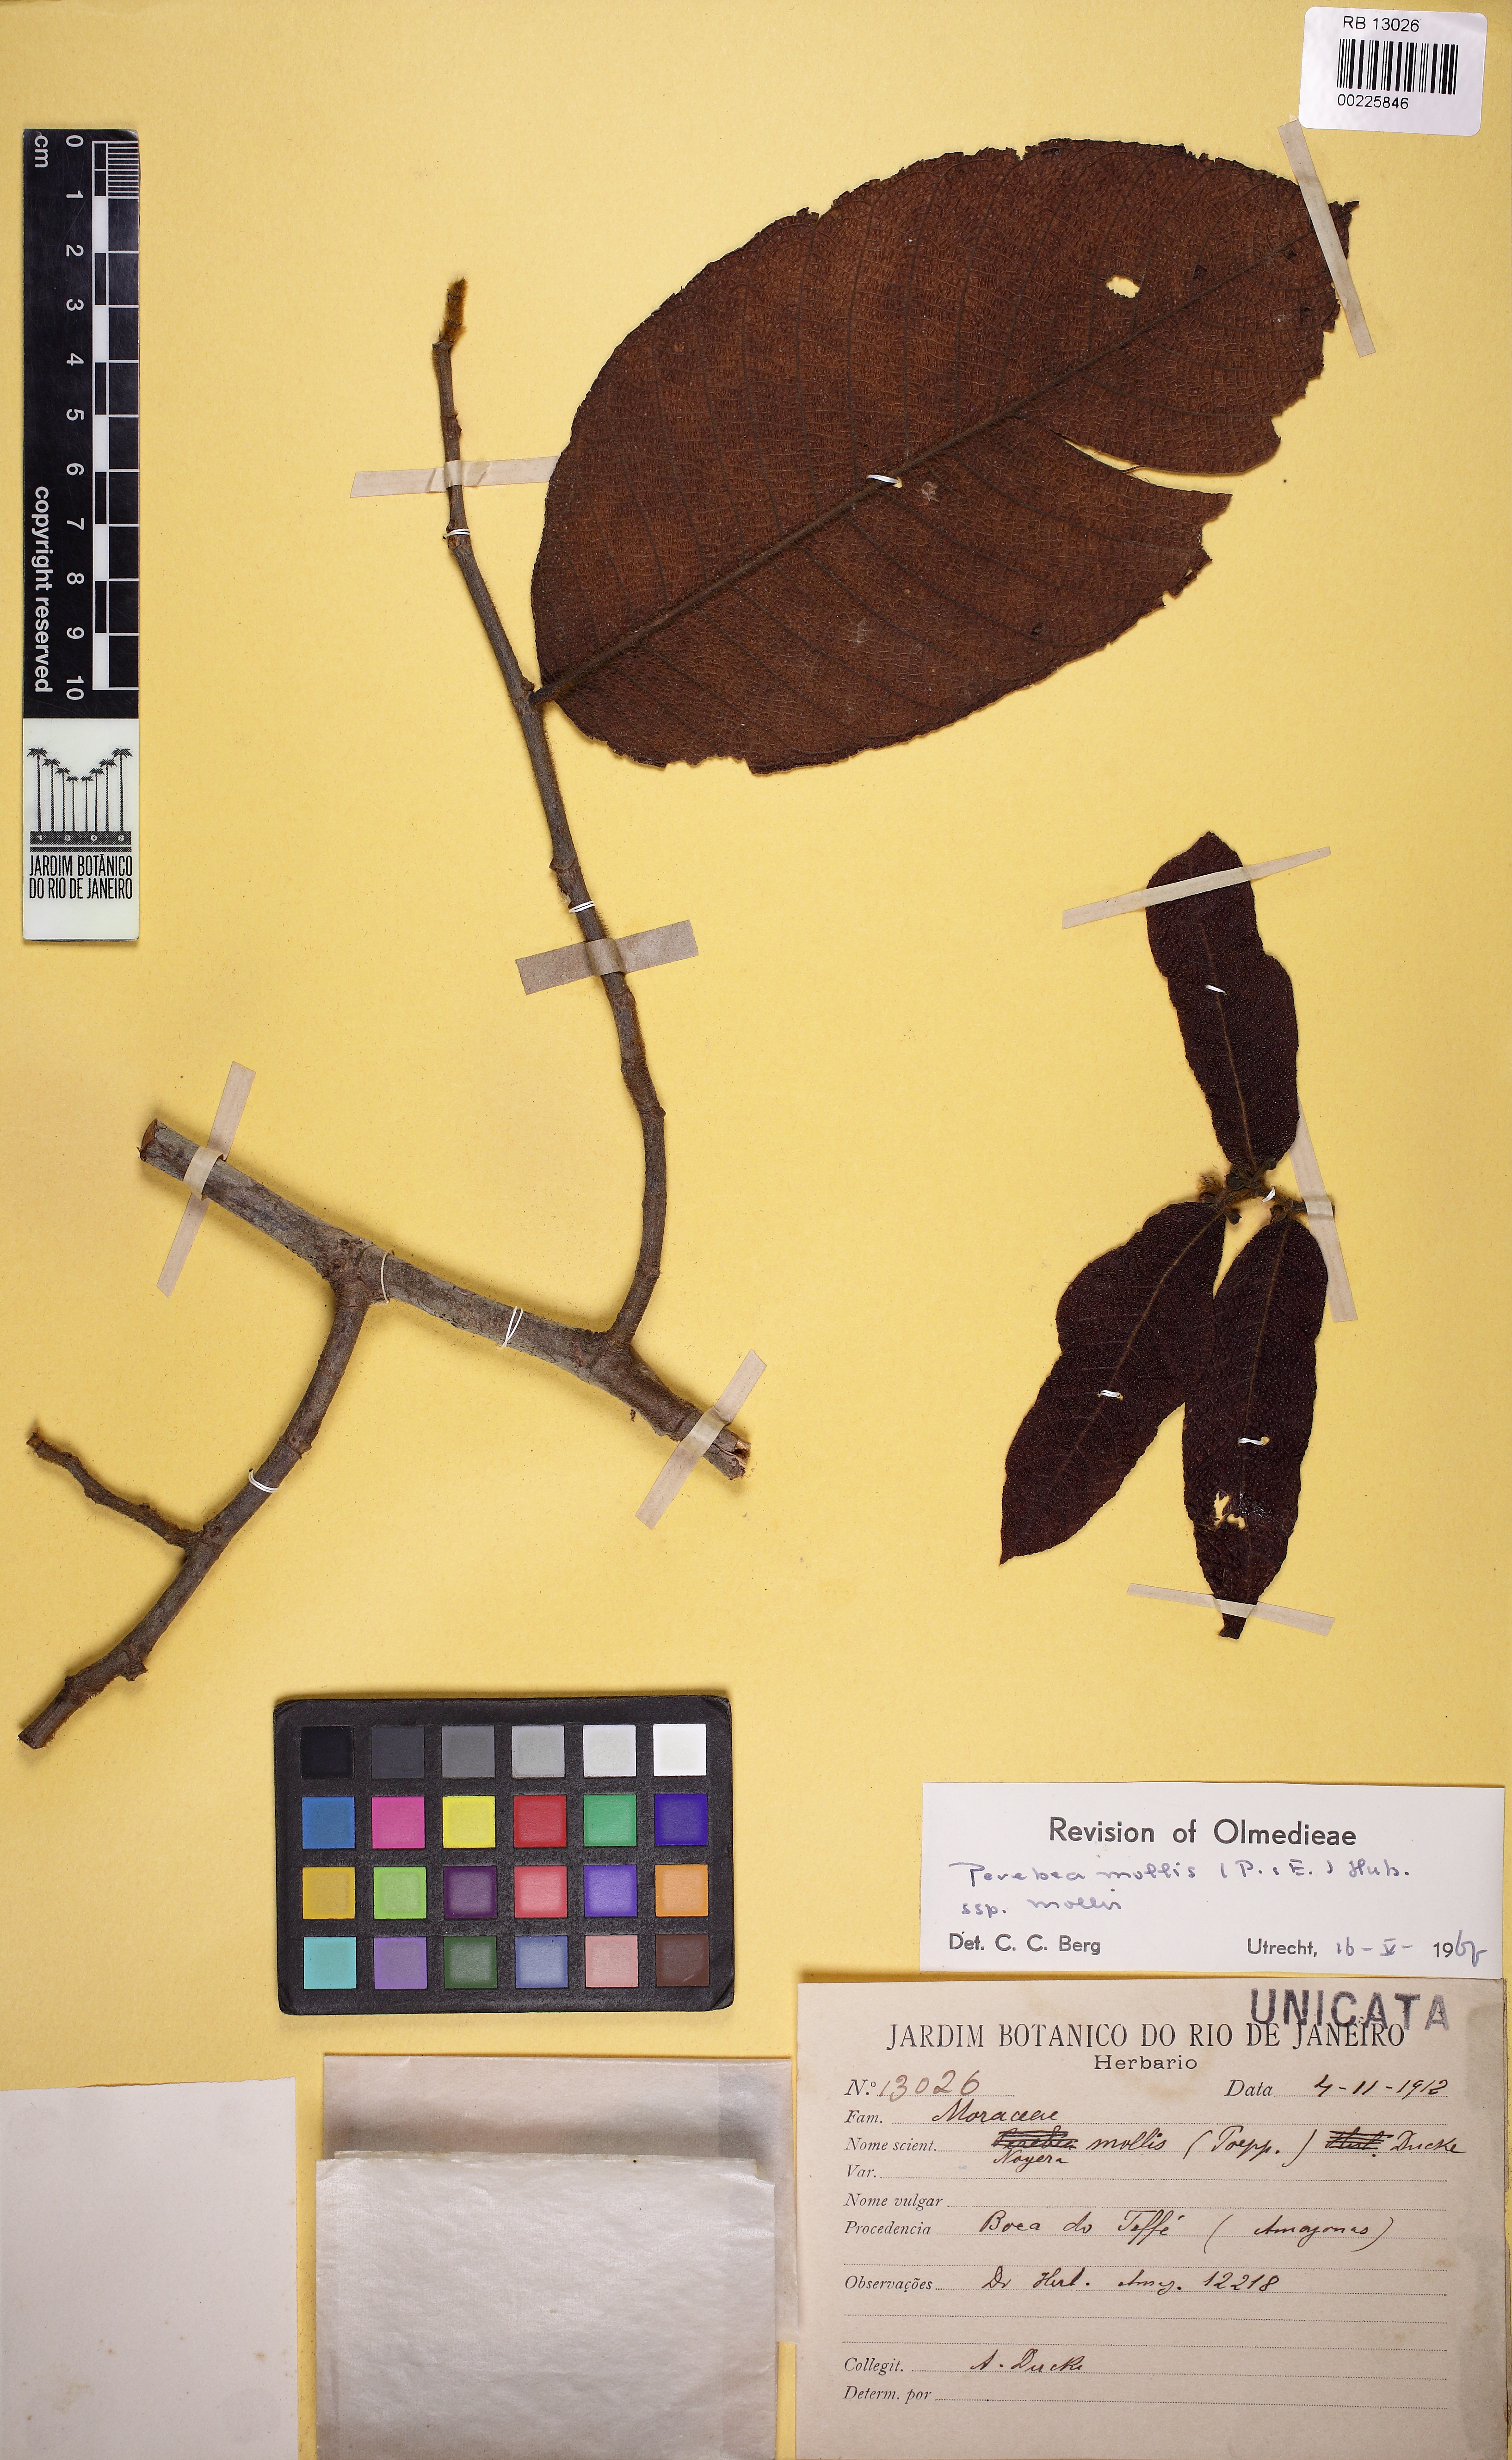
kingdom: Plantae
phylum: Tracheophyta
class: Magnoliopsida
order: Rosales
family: Moraceae
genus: Perebea
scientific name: Perebea mollis
